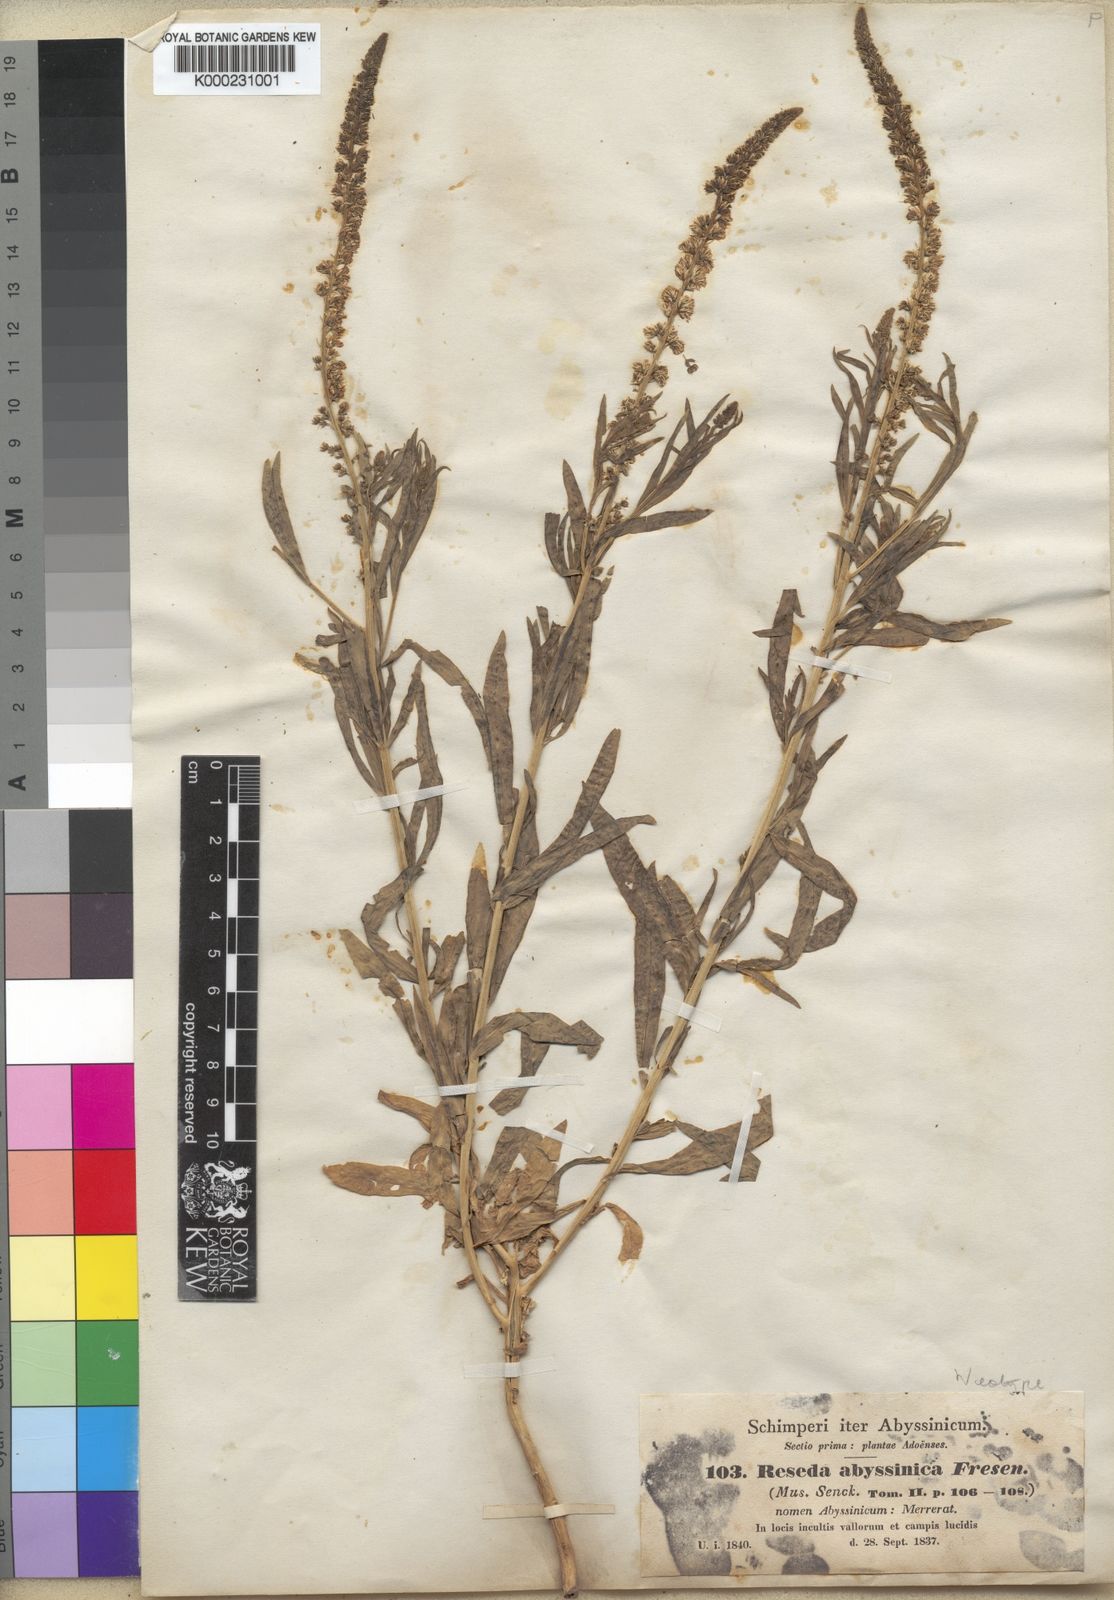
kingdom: Plantae
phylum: Tracheophyta
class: Magnoliopsida
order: Brassicales
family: Resedaceae
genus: Caylusea
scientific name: Caylusea abyssinica
